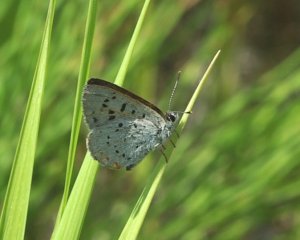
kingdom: Animalia
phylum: Arthropoda
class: Insecta
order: Lepidoptera
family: Sesiidae
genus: Sesia
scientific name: Sesia Lycaena epixanthe
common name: Bog Copper
